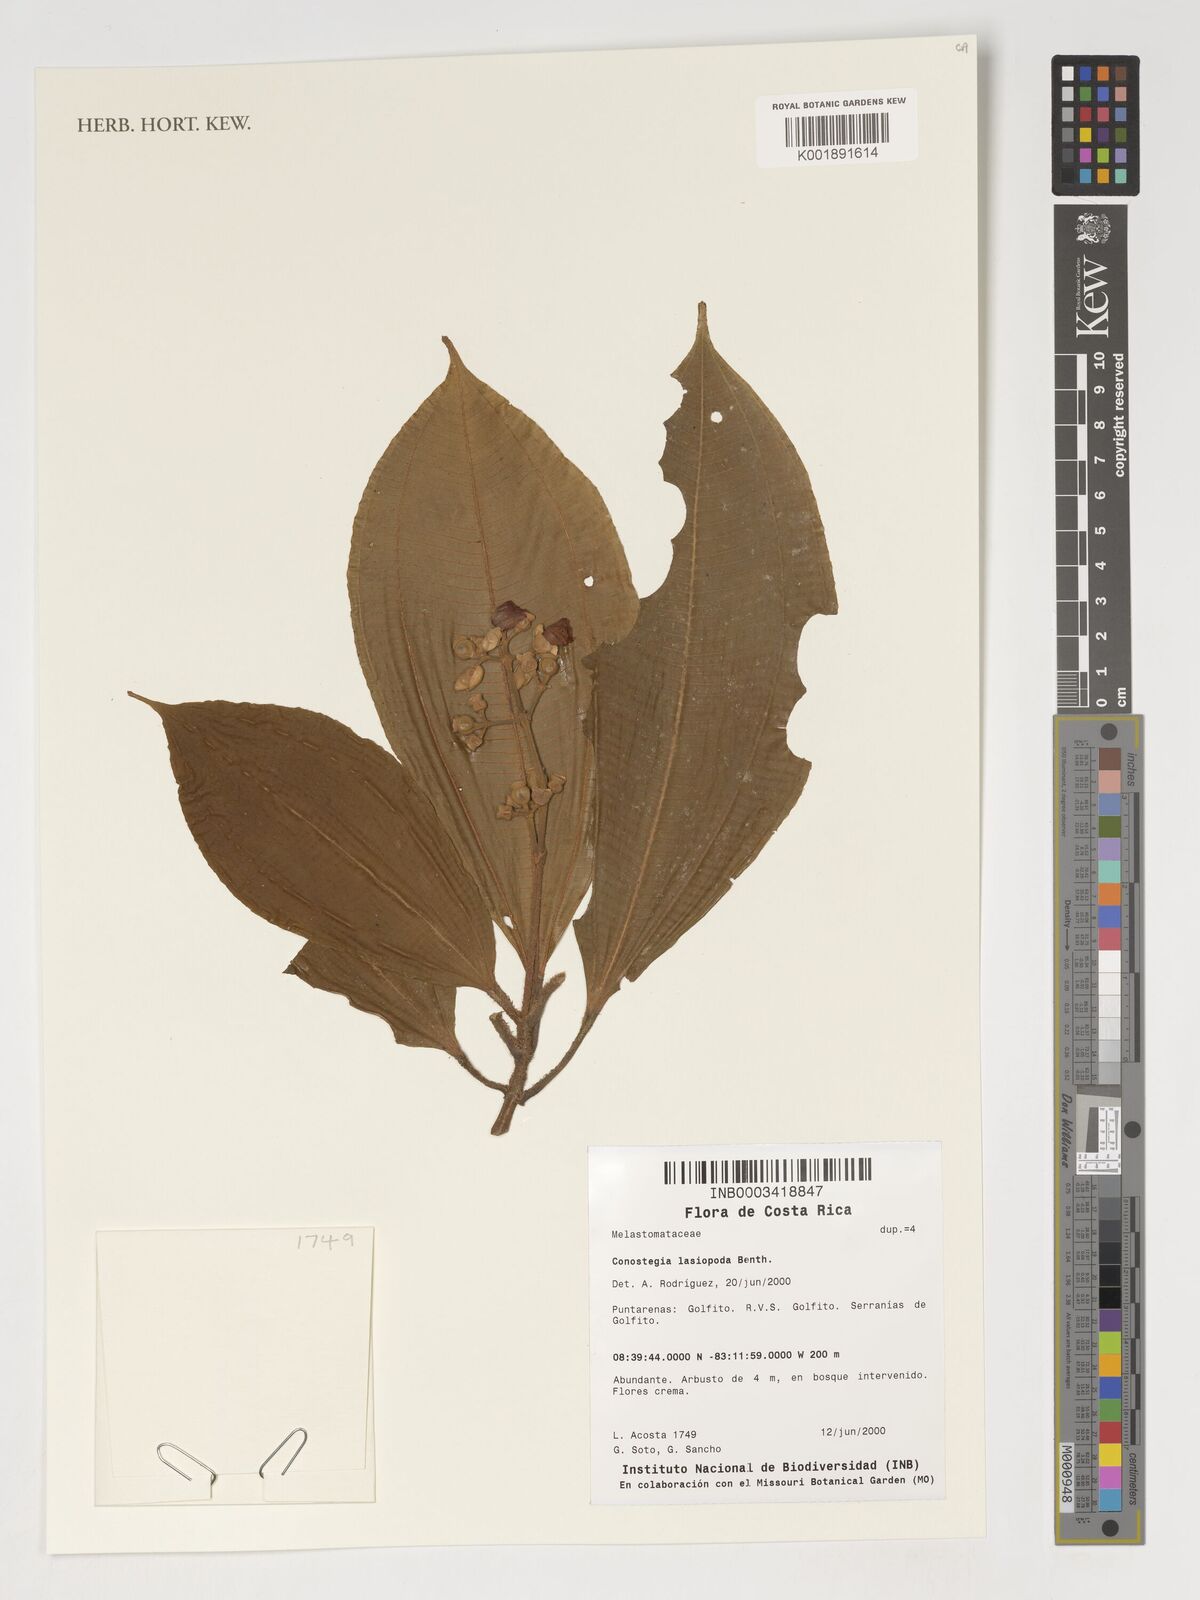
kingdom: Plantae
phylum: Tracheophyta
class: Magnoliopsida
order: Myrtales
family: Melastomataceae
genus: Miconia
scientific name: Miconia lasiopoda
